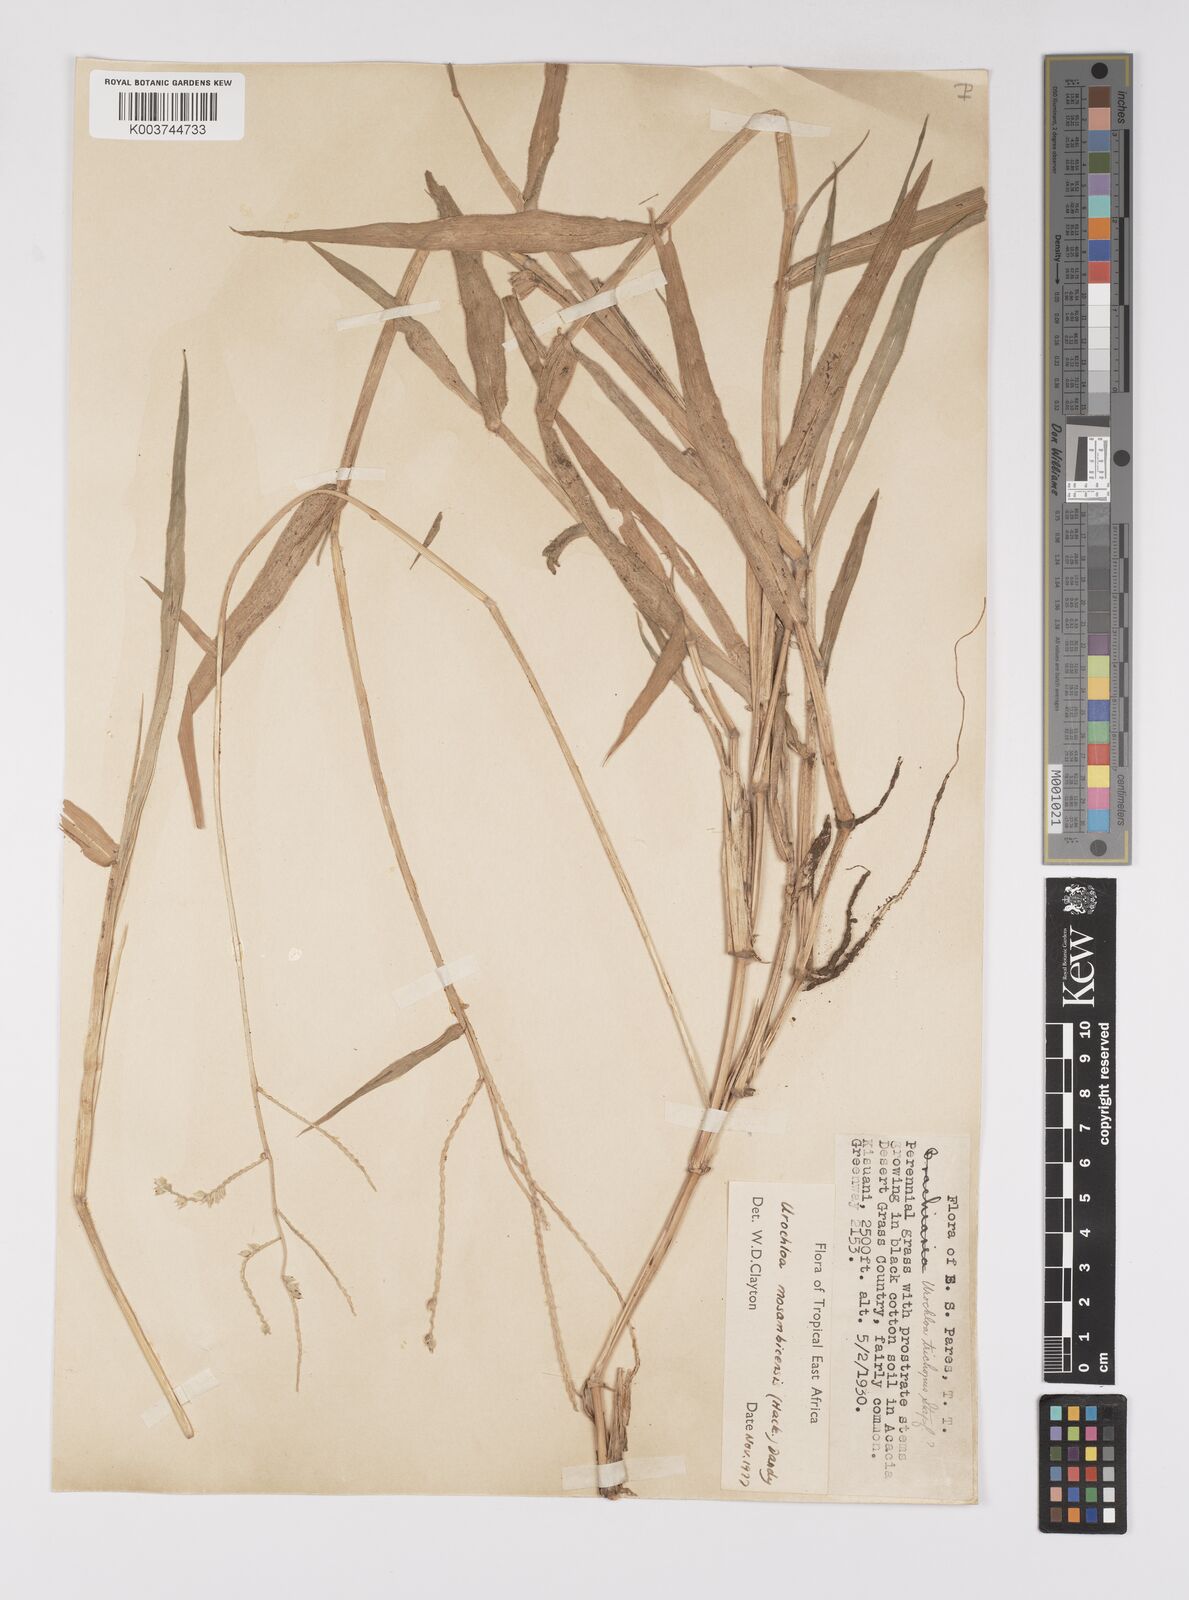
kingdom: Plantae
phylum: Tracheophyta
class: Liliopsida
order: Poales
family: Poaceae
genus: Urochloa
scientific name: Urochloa trichopus
